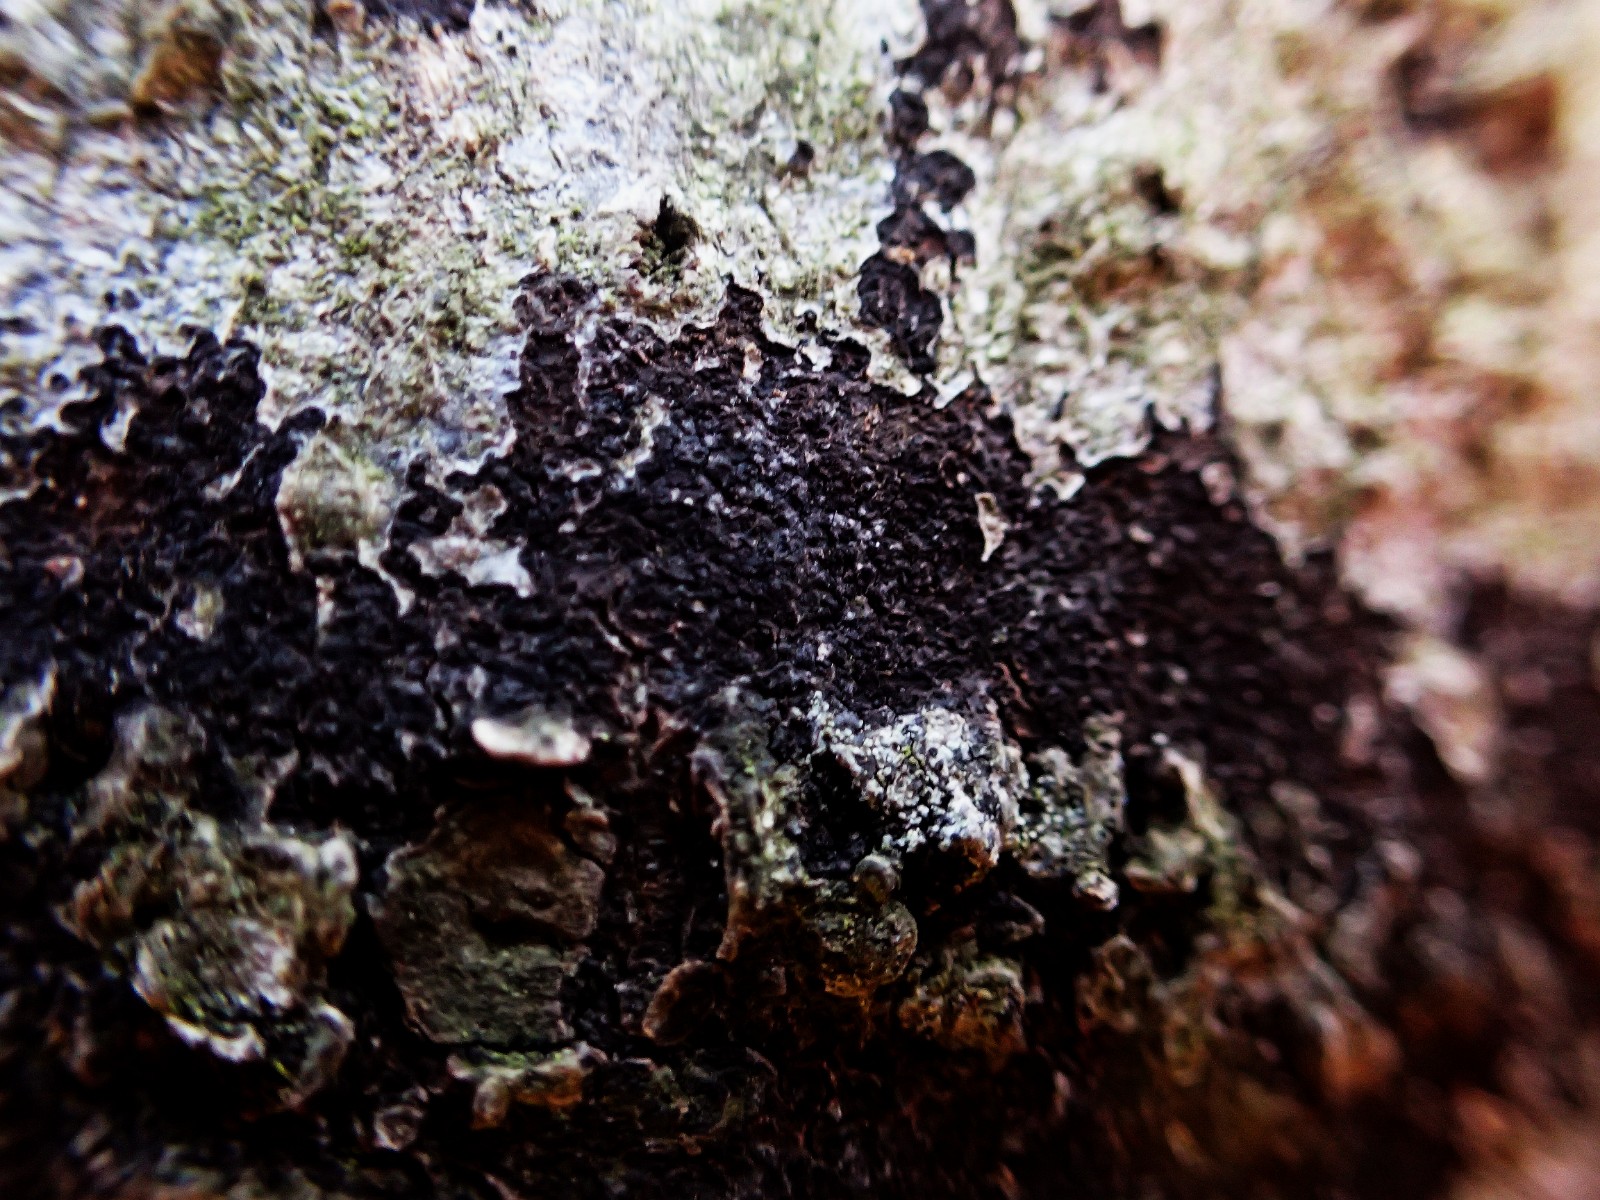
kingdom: Fungi
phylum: Ascomycota
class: Leotiomycetes
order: Rhytismatales
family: Ascodichaenaceae
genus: Ascodichaena
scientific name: Ascodichaena rugosa
